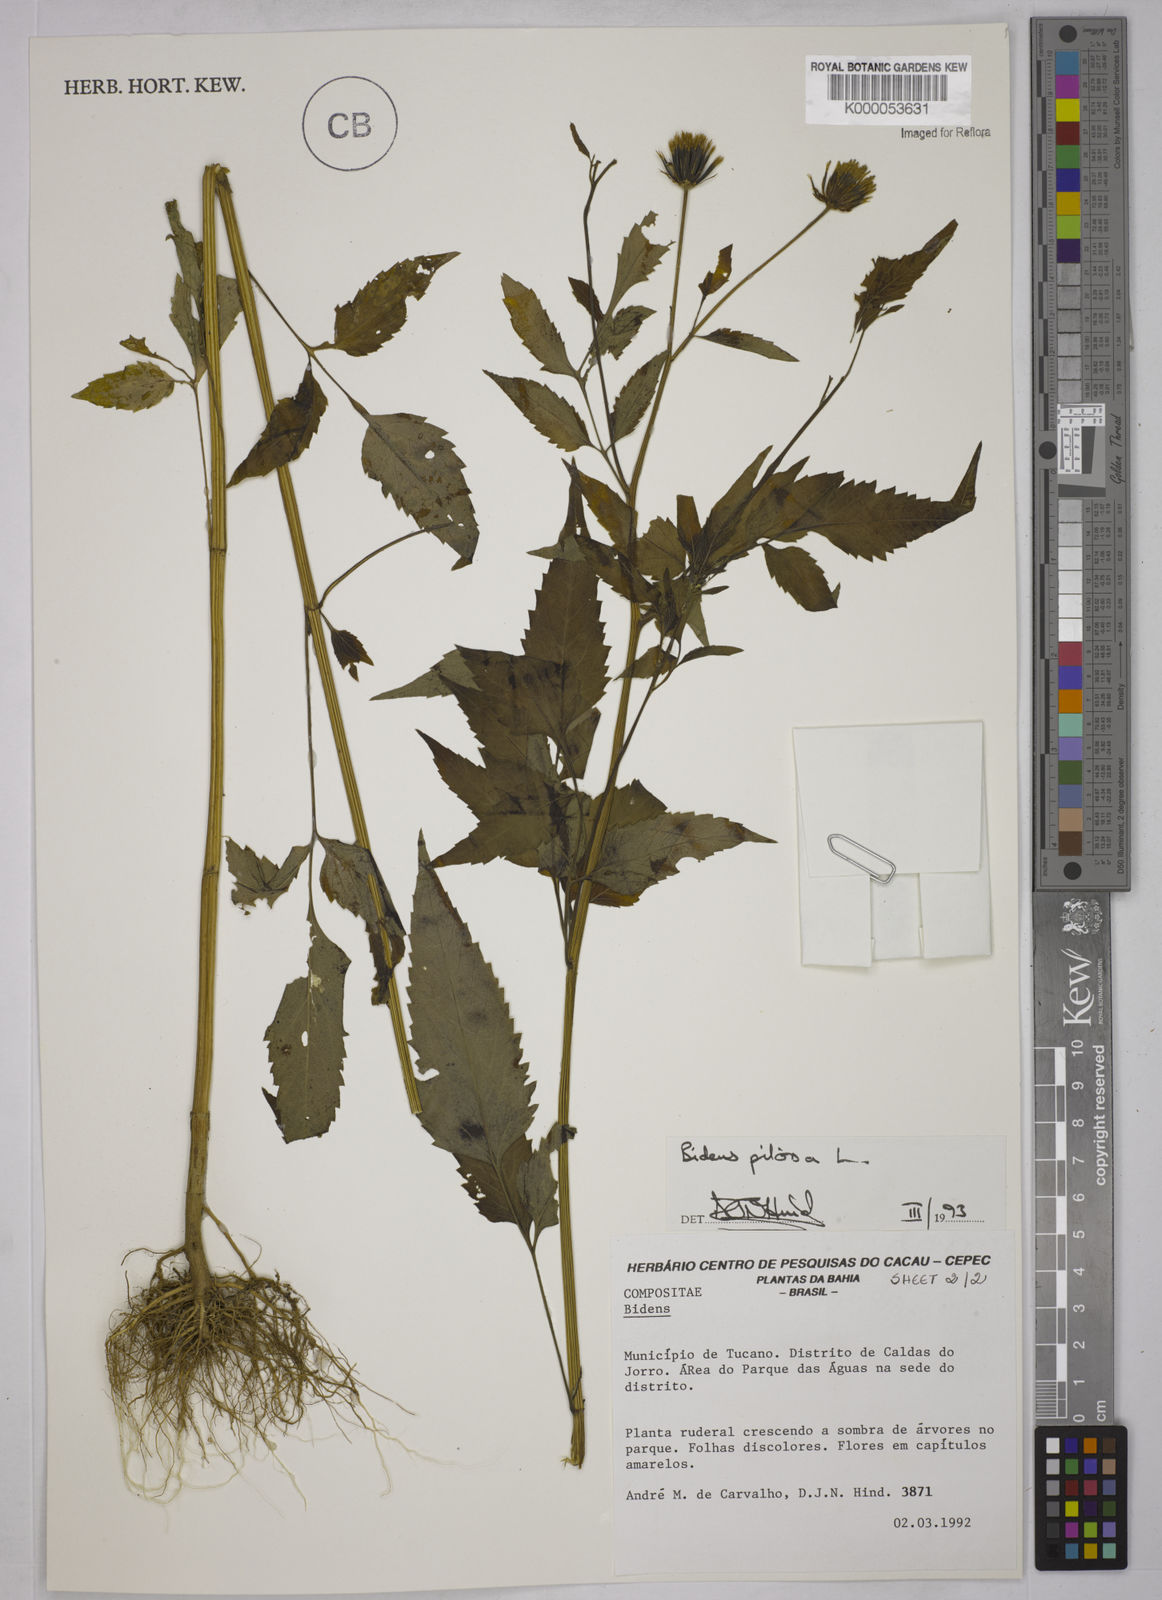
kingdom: Plantae
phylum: Tracheophyta
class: Magnoliopsida
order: Asterales
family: Asteraceae
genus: Bidens
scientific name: Bidens pilosa
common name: Black-jack
